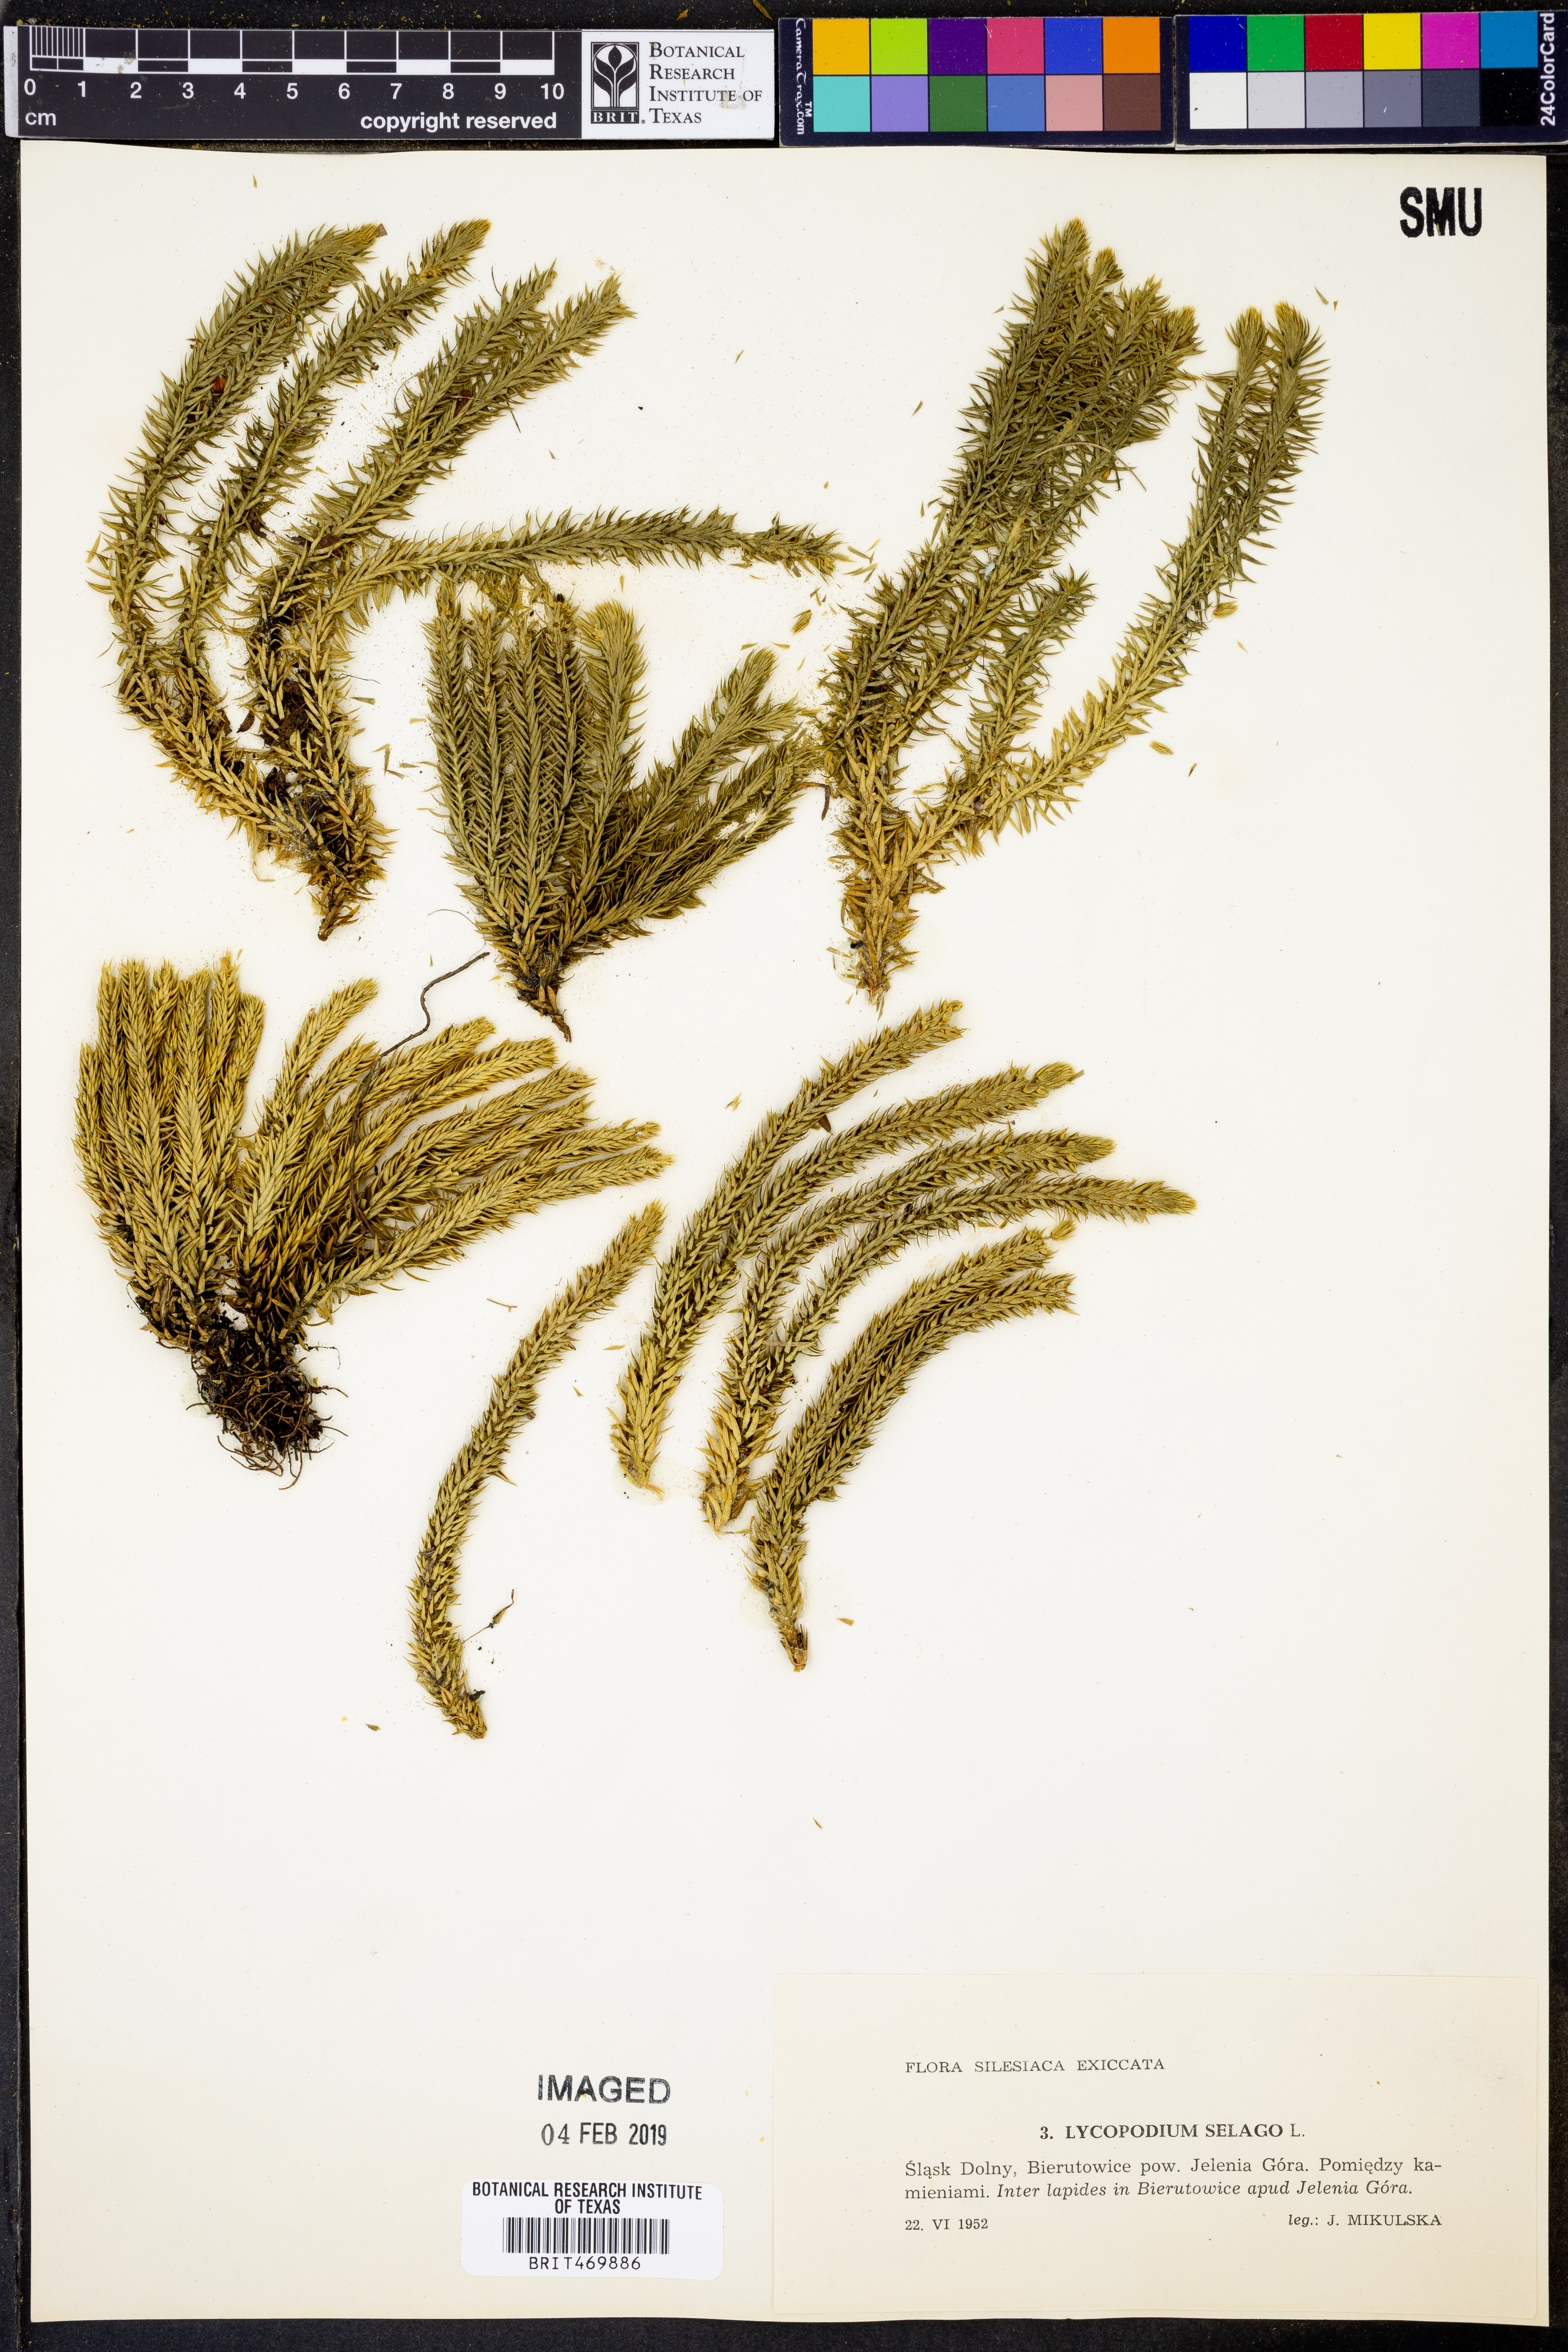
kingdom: Plantae
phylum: Tracheophyta
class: Lycopodiopsida
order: Lycopodiales
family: Lycopodiaceae
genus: Huperzia
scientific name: Huperzia selago
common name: Northern firmoss
